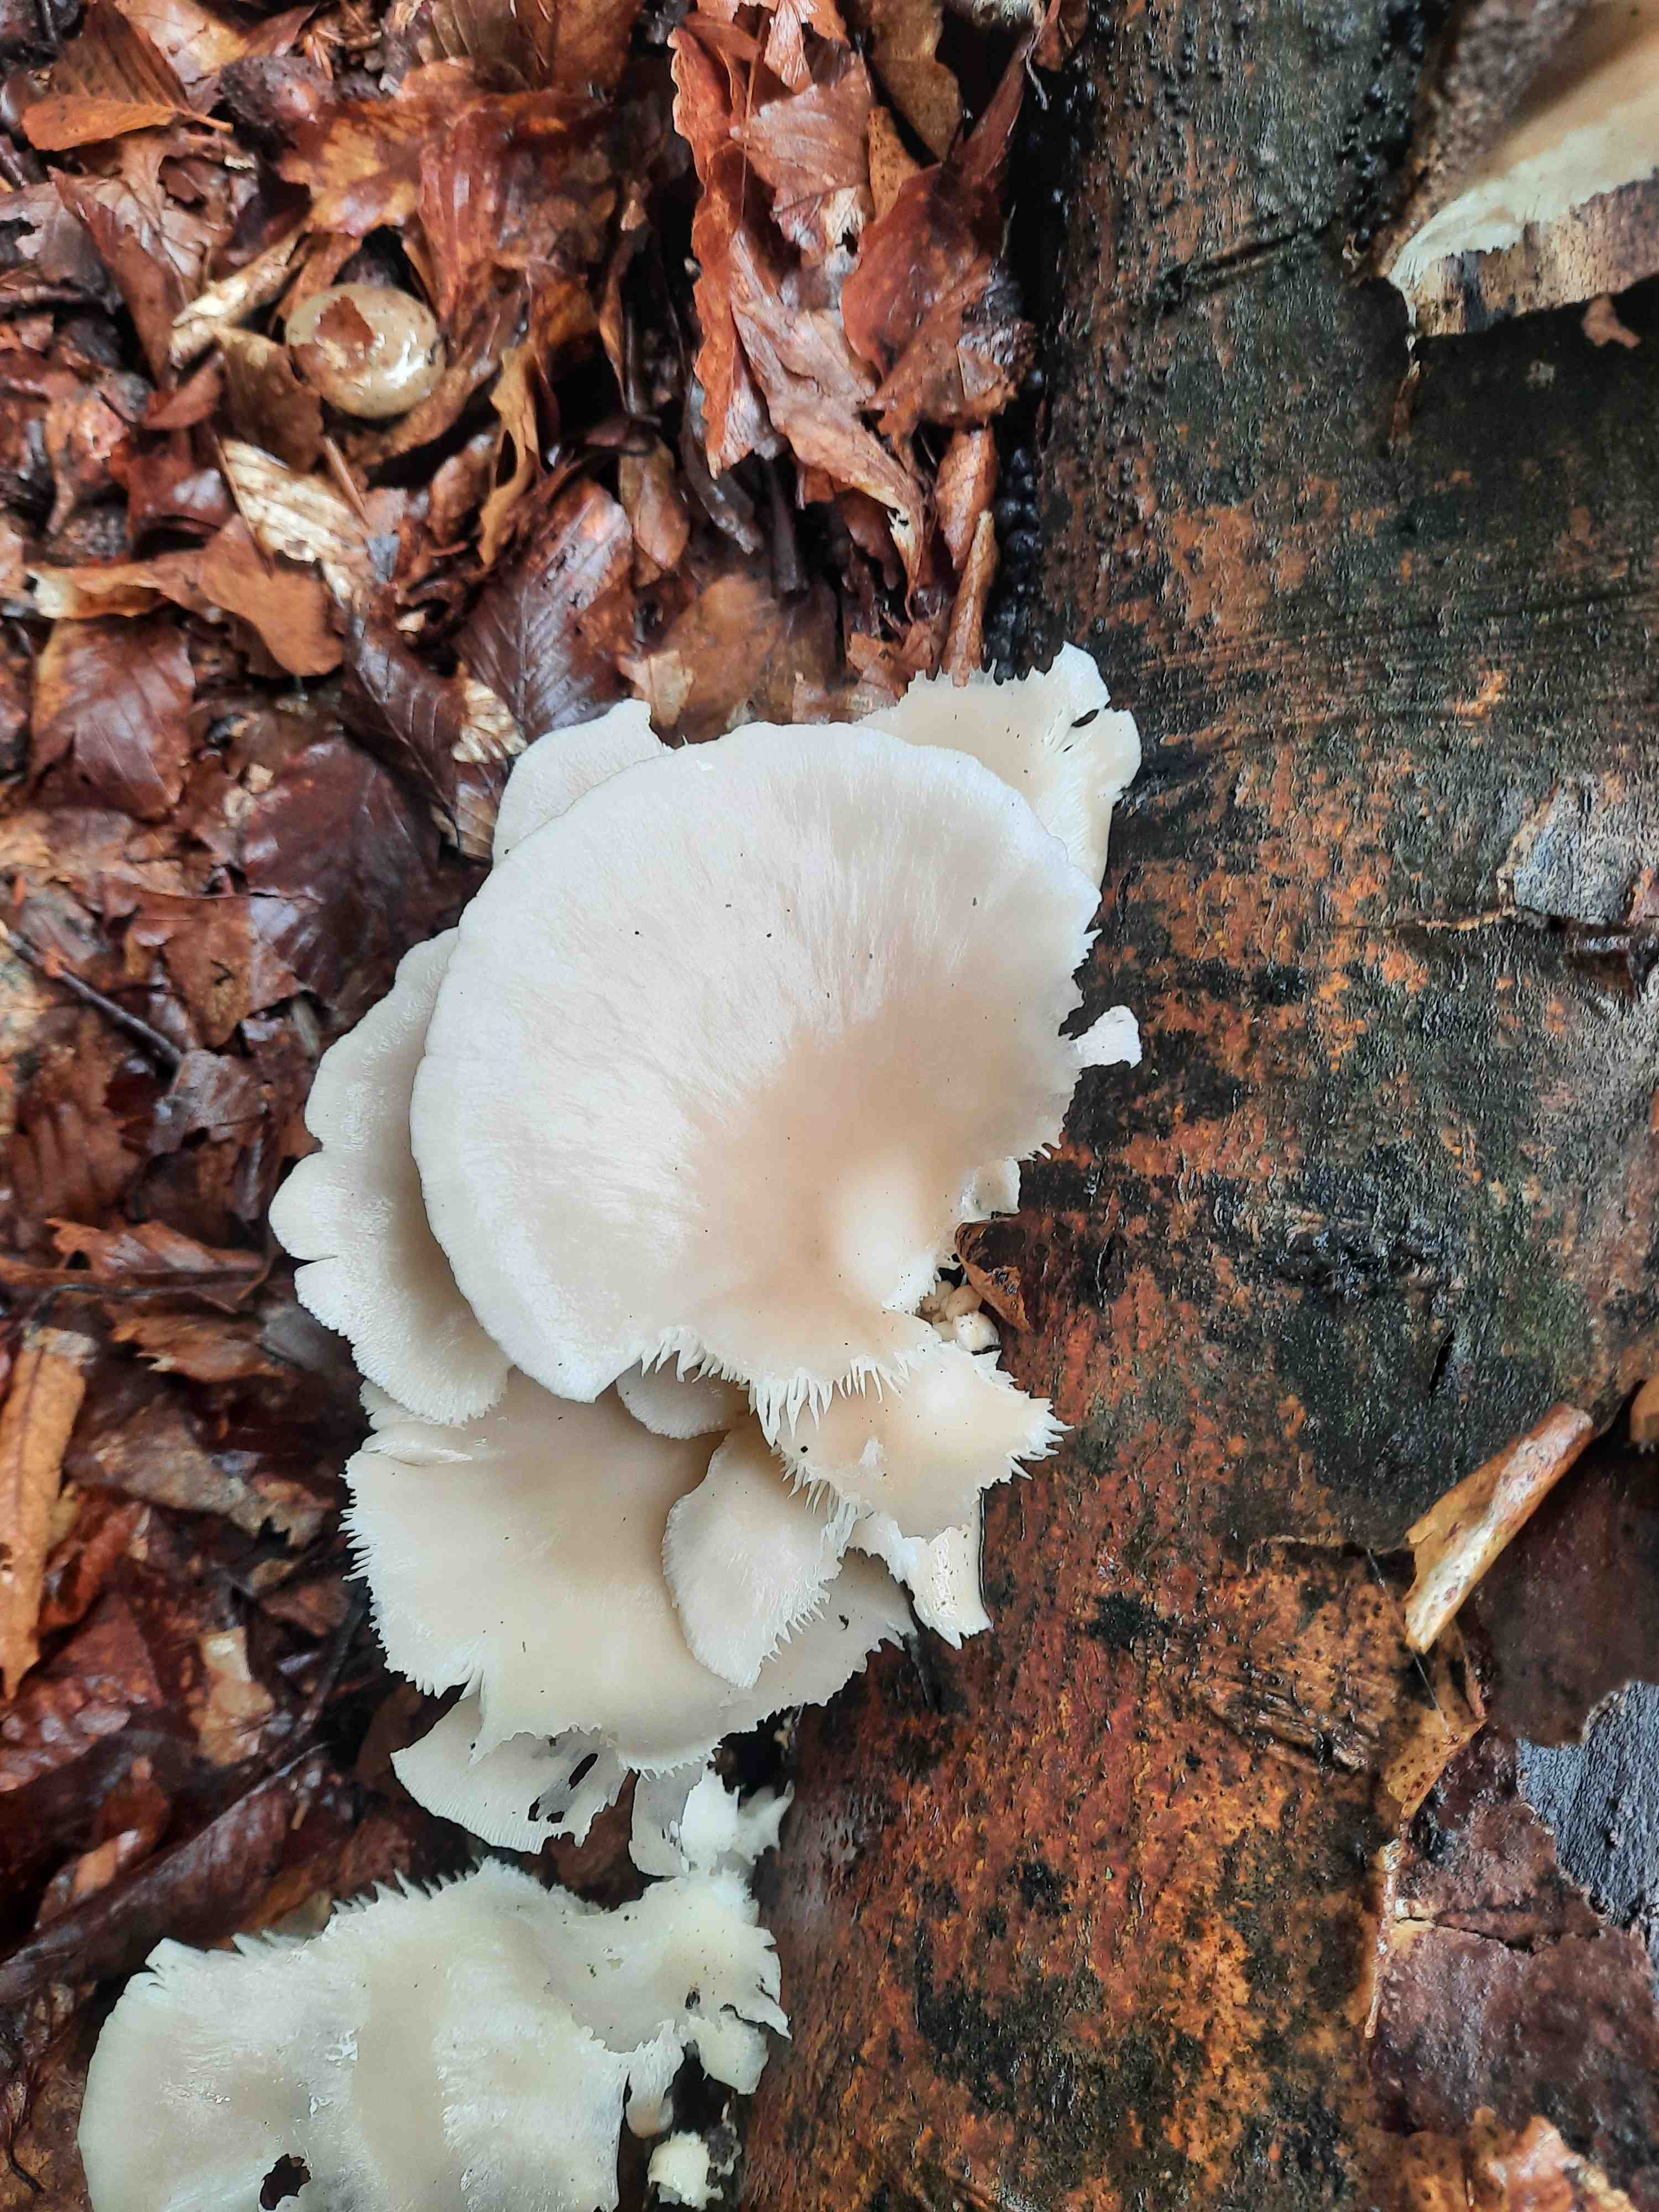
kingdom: Fungi
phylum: Basidiomycota
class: Agaricomycetes
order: Agaricales
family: Pleurotaceae
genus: Pleurotus
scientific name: Pleurotus pulmonarius
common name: sommer-østershat
